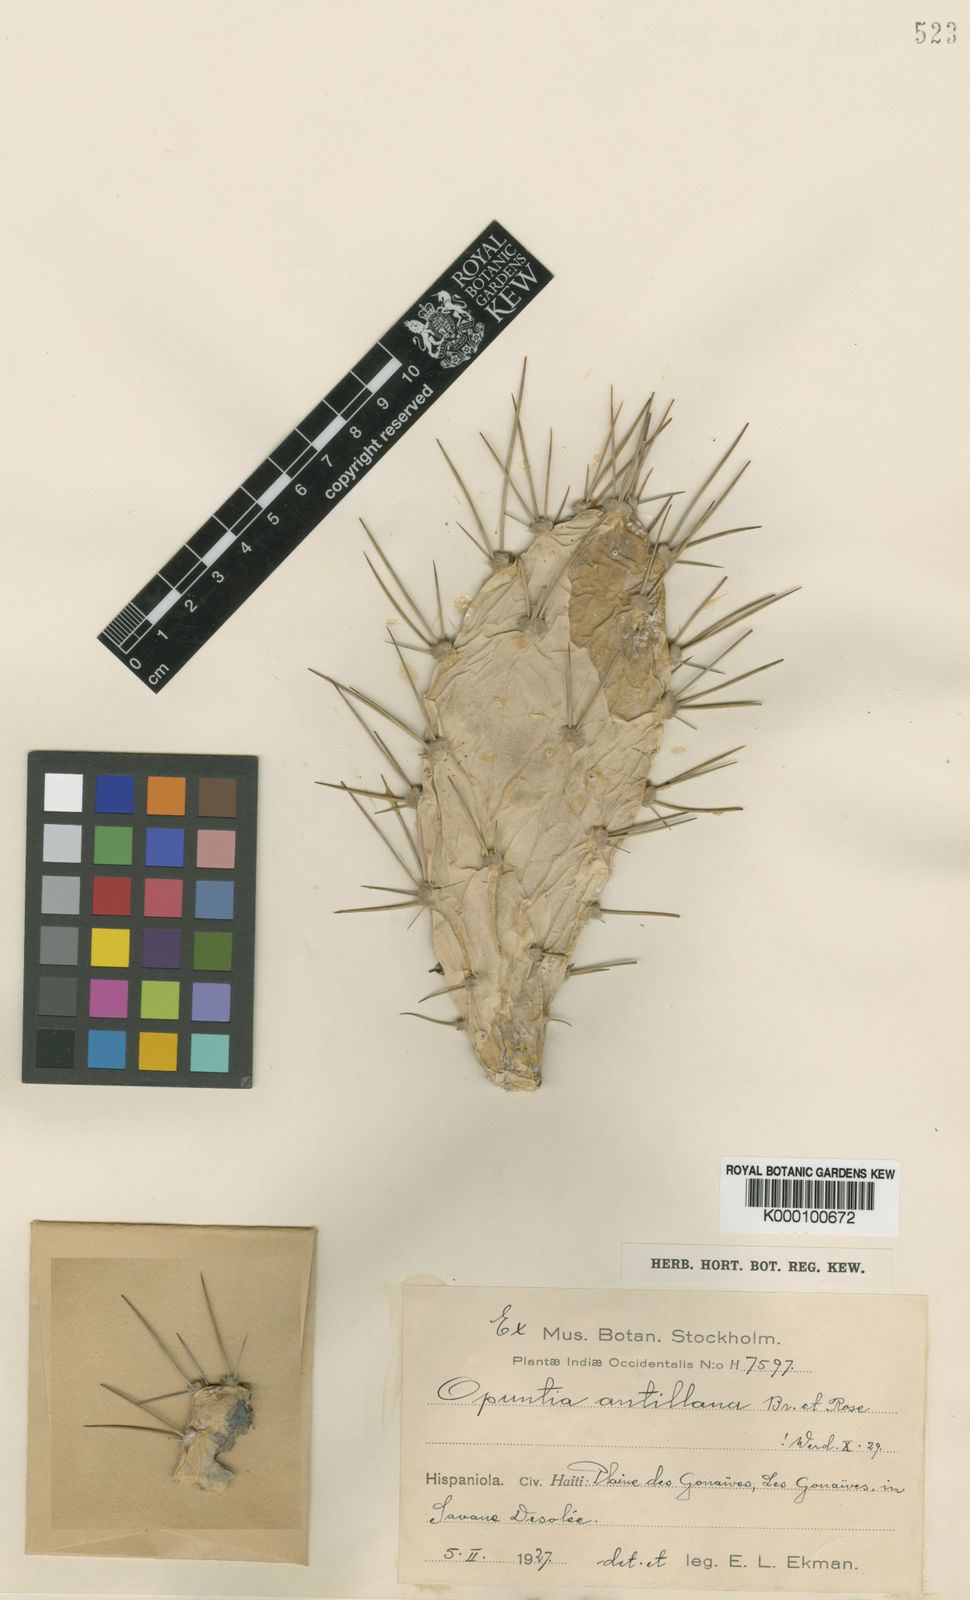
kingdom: Plantae
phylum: Tracheophyta
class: Magnoliopsida
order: Caryophyllales
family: Cactaceae
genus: Opuntia
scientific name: Opuntia curassavica
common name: Cylindrical prickly pear
